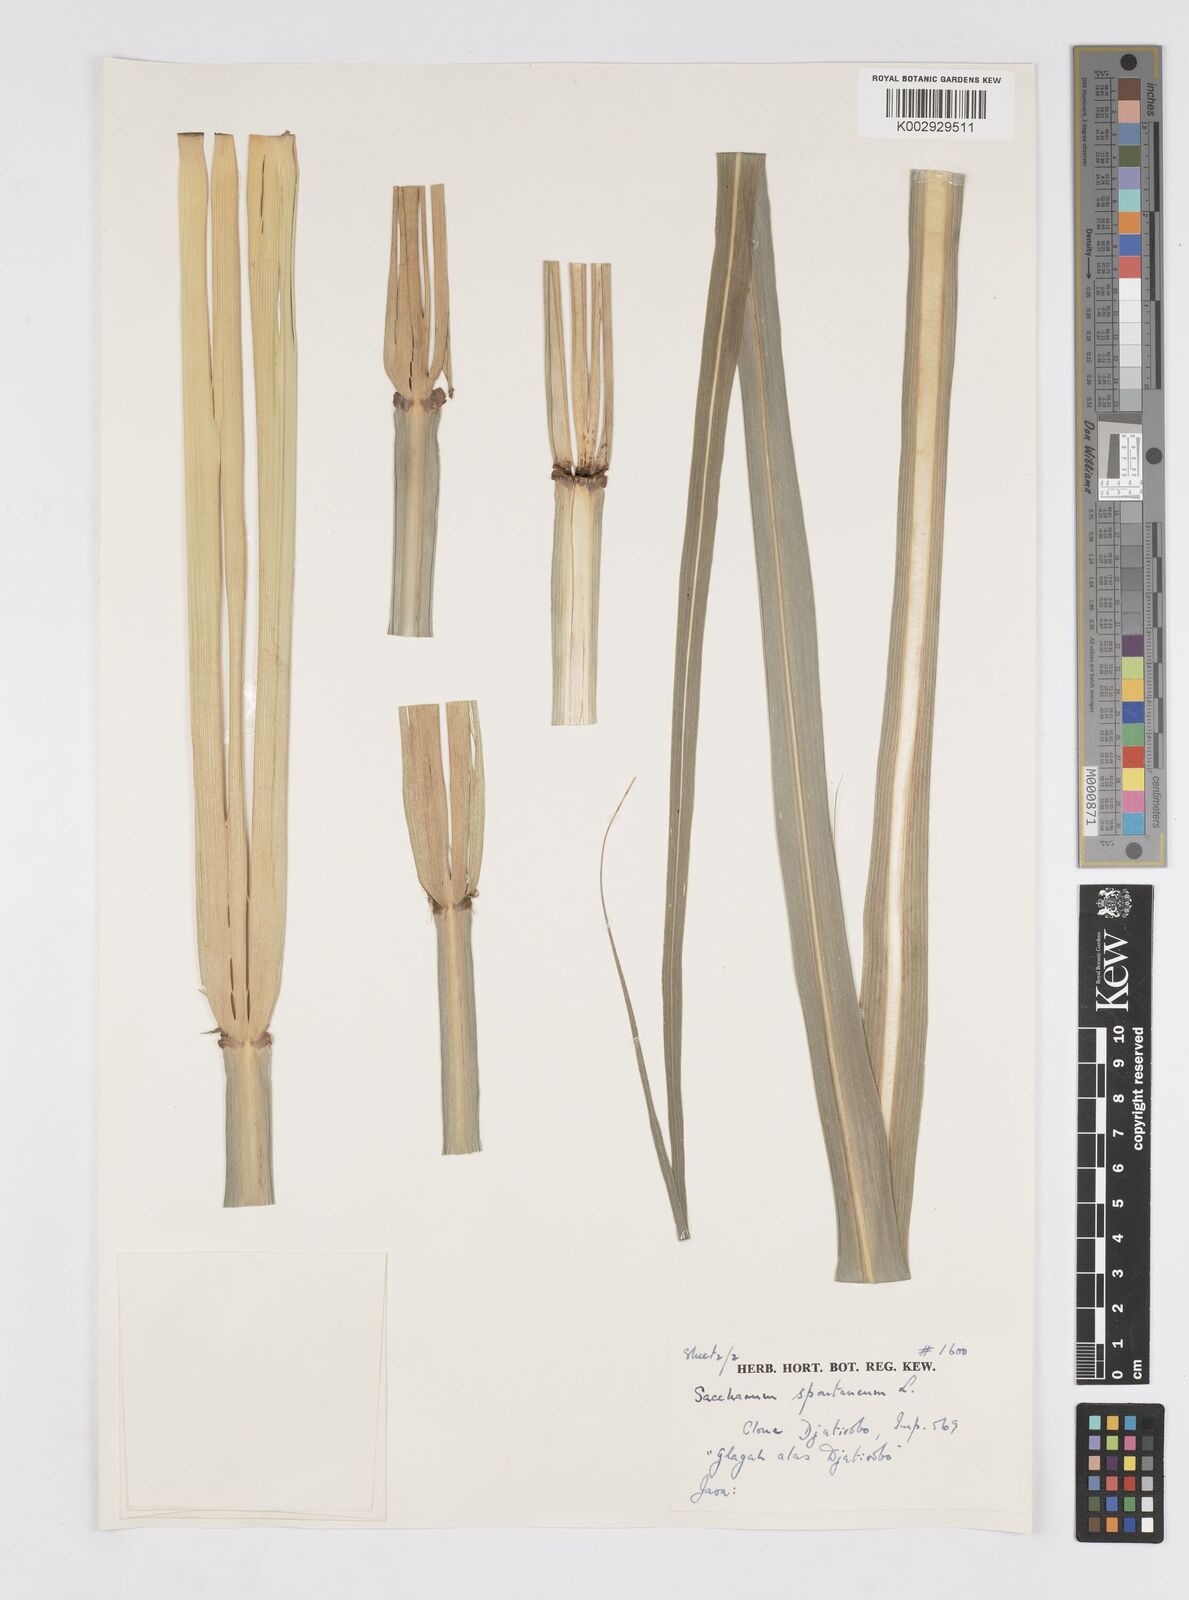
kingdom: Plantae
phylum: Tracheophyta
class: Liliopsida
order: Poales
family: Poaceae
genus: Saccharum
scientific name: Saccharum spontaneum
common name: Wild sugarcane
